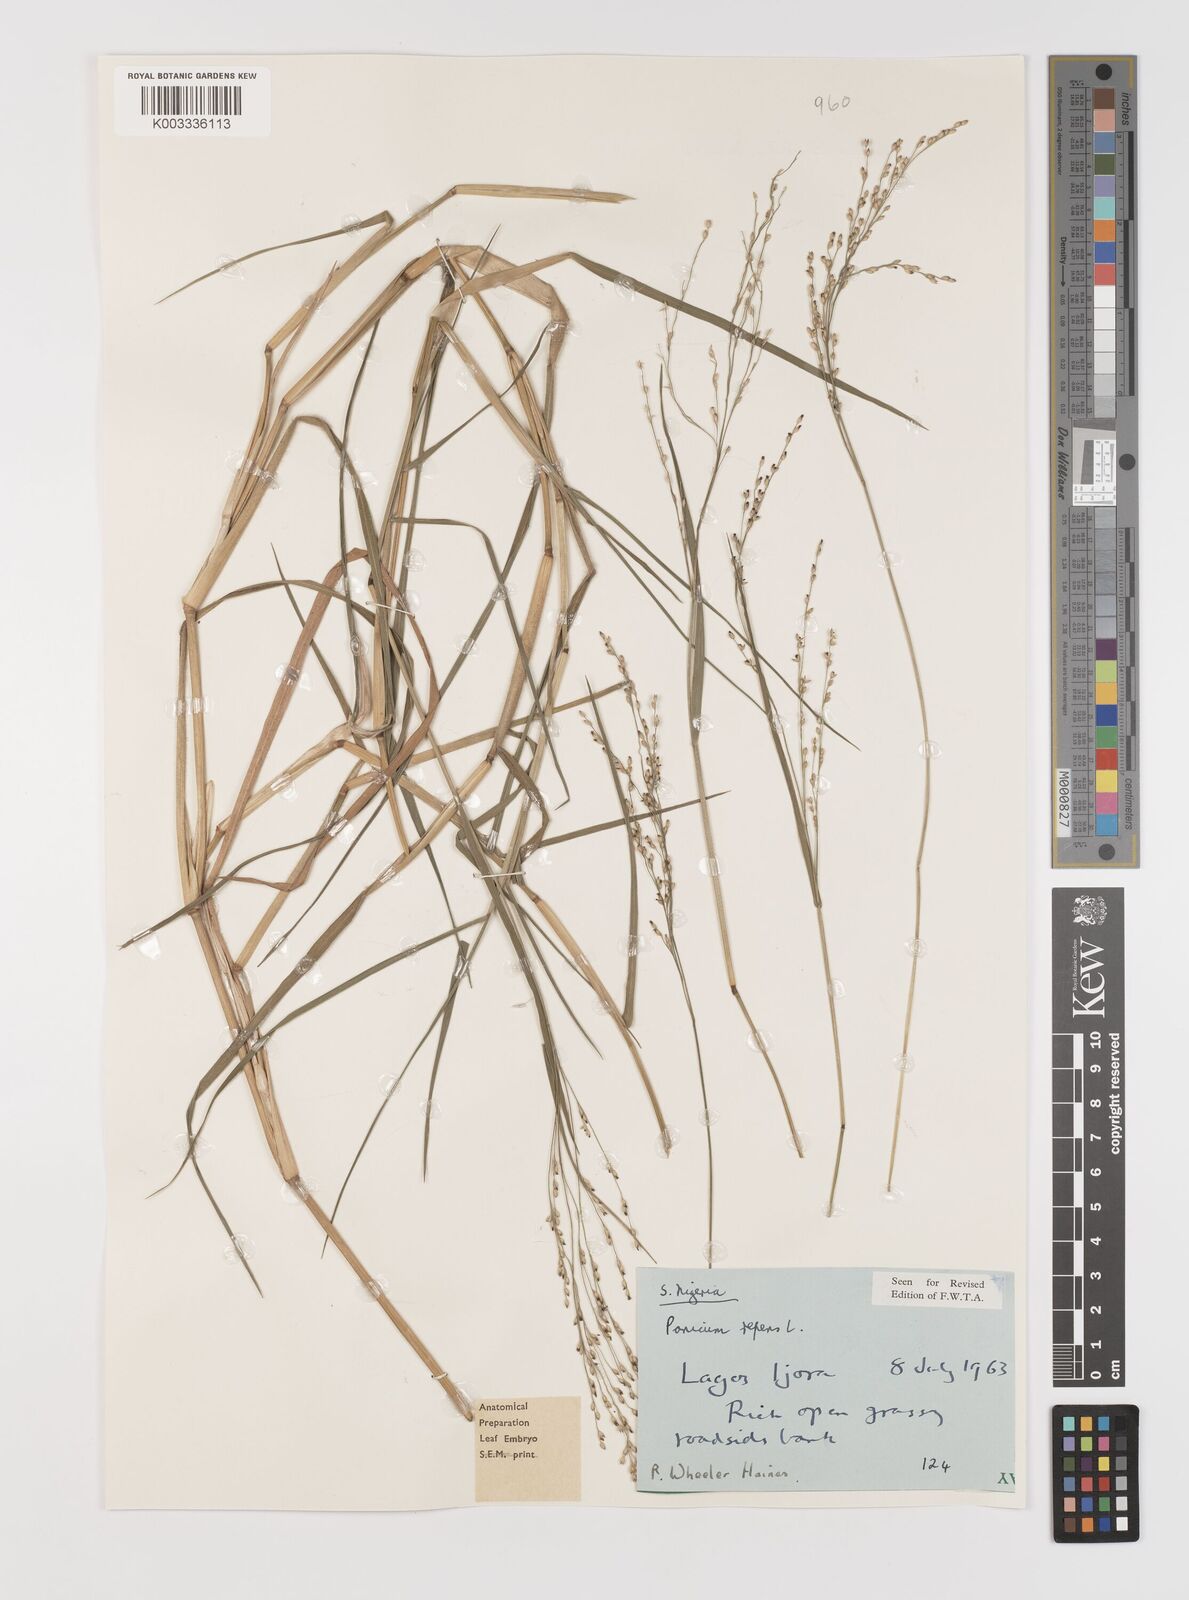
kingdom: Plantae
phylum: Tracheophyta
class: Liliopsida
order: Poales
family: Poaceae
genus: Panicum
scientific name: Panicum repens
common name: Torpedo grass
